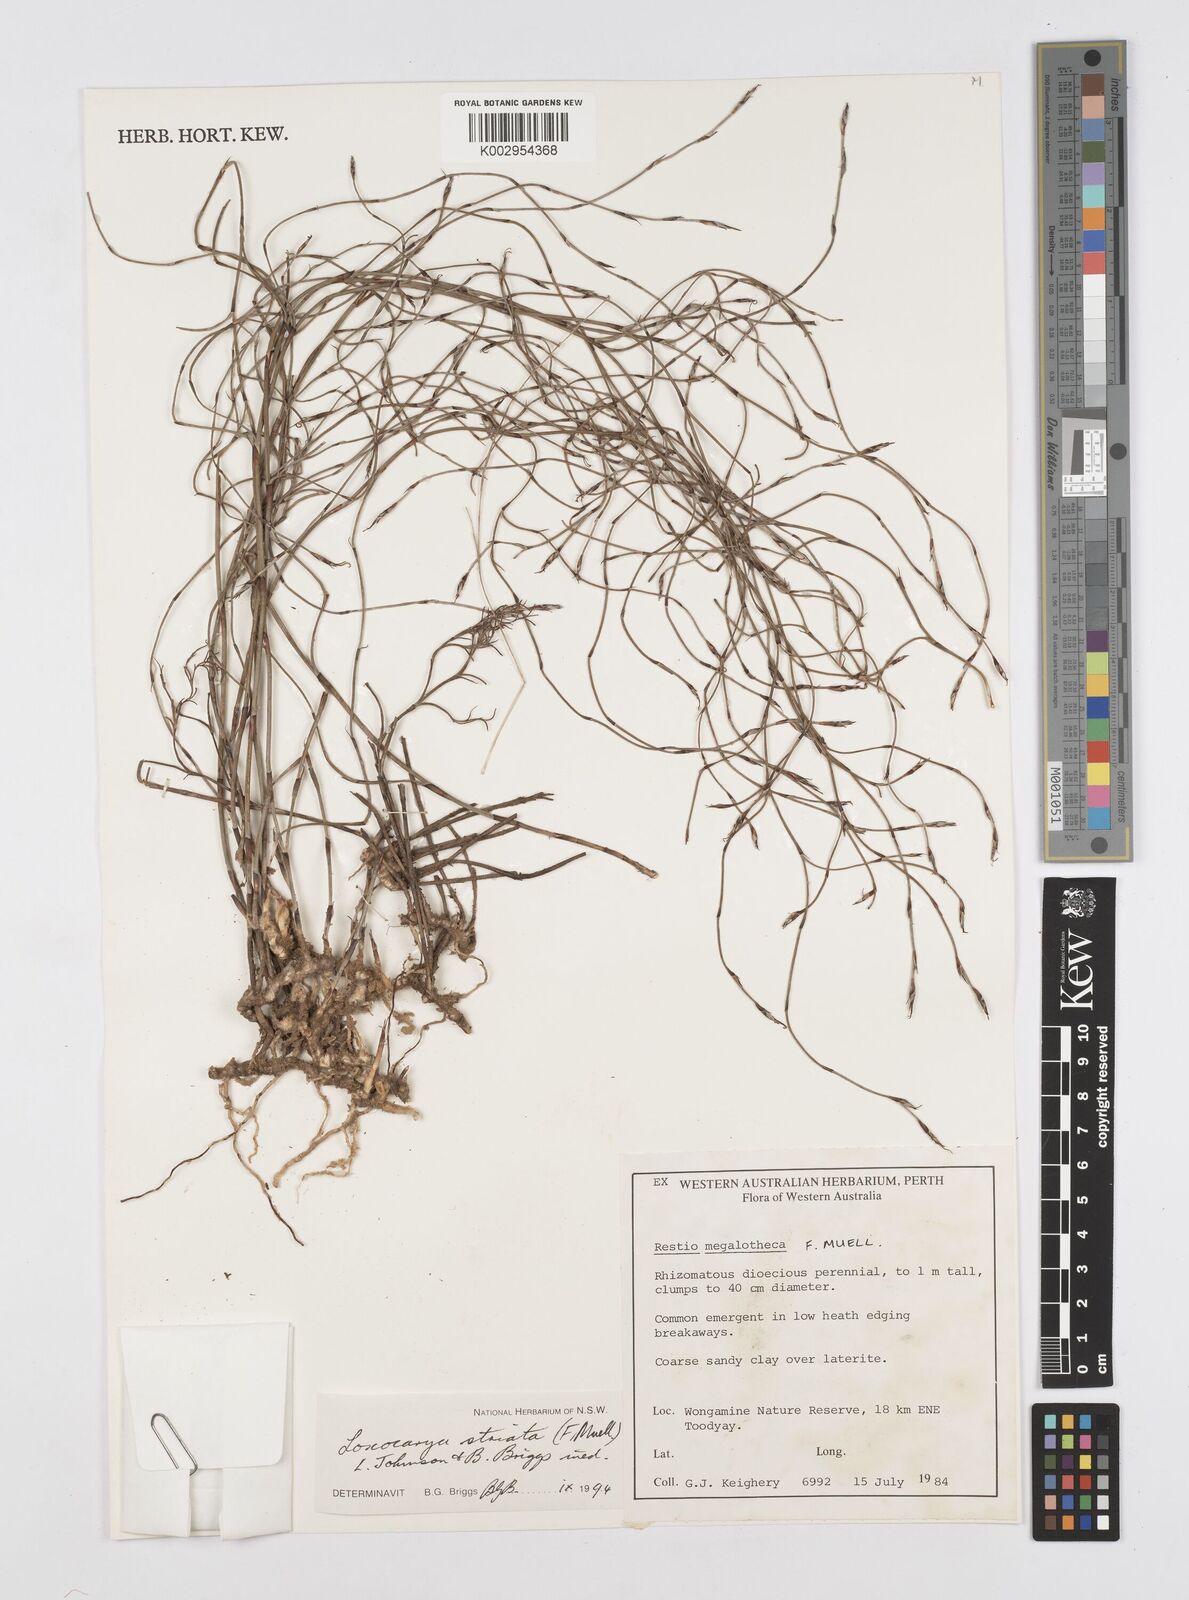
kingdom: Plantae
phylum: Tracheophyta
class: Liliopsida
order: Poales
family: Restionaceae
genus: Loxocarya
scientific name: Loxocarya striata
